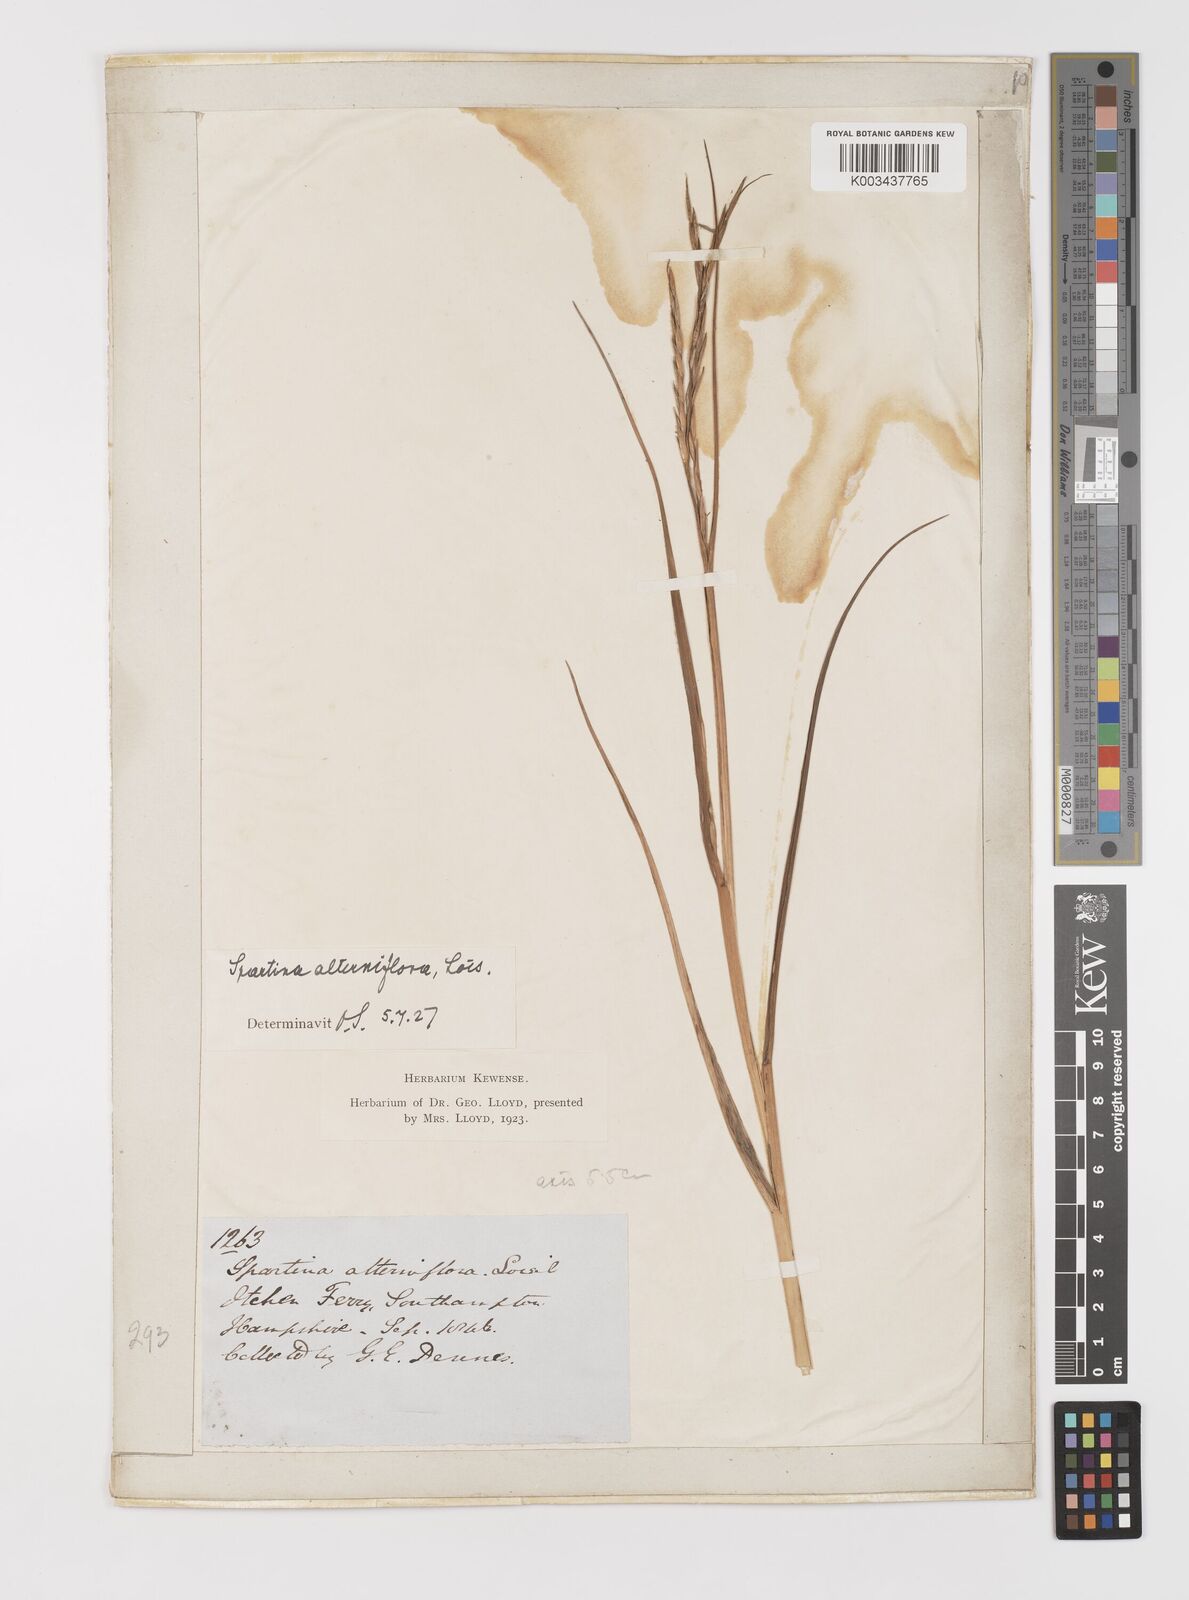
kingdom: Plantae
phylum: Tracheophyta
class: Liliopsida
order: Poales
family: Poaceae
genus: Sporobolus
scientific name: Sporobolus alterniflorus
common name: Atlantic cordgrass
